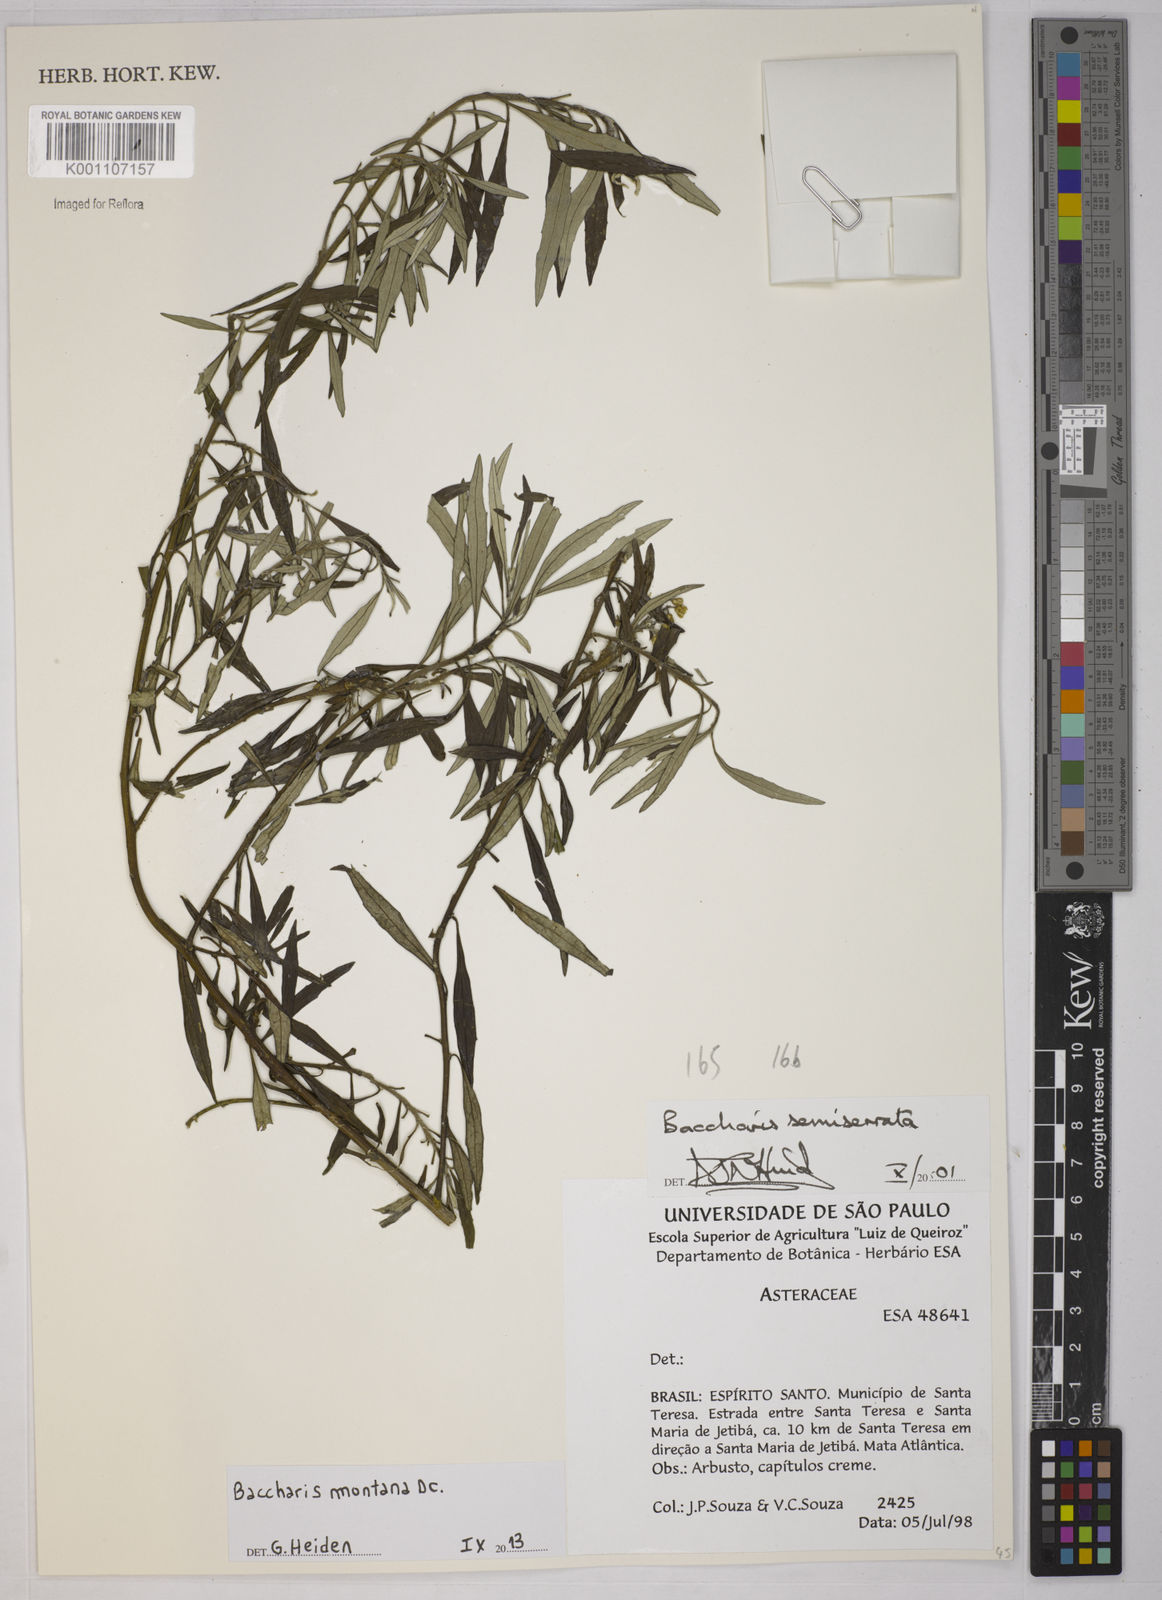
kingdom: Plantae
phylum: Tracheophyta
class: Magnoliopsida
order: Asterales
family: Asteraceae
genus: Baccharis
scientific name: Baccharis montana
